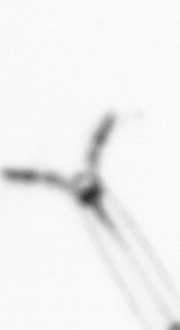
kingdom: Animalia
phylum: Arthropoda
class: Copepoda
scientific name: Copepoda
